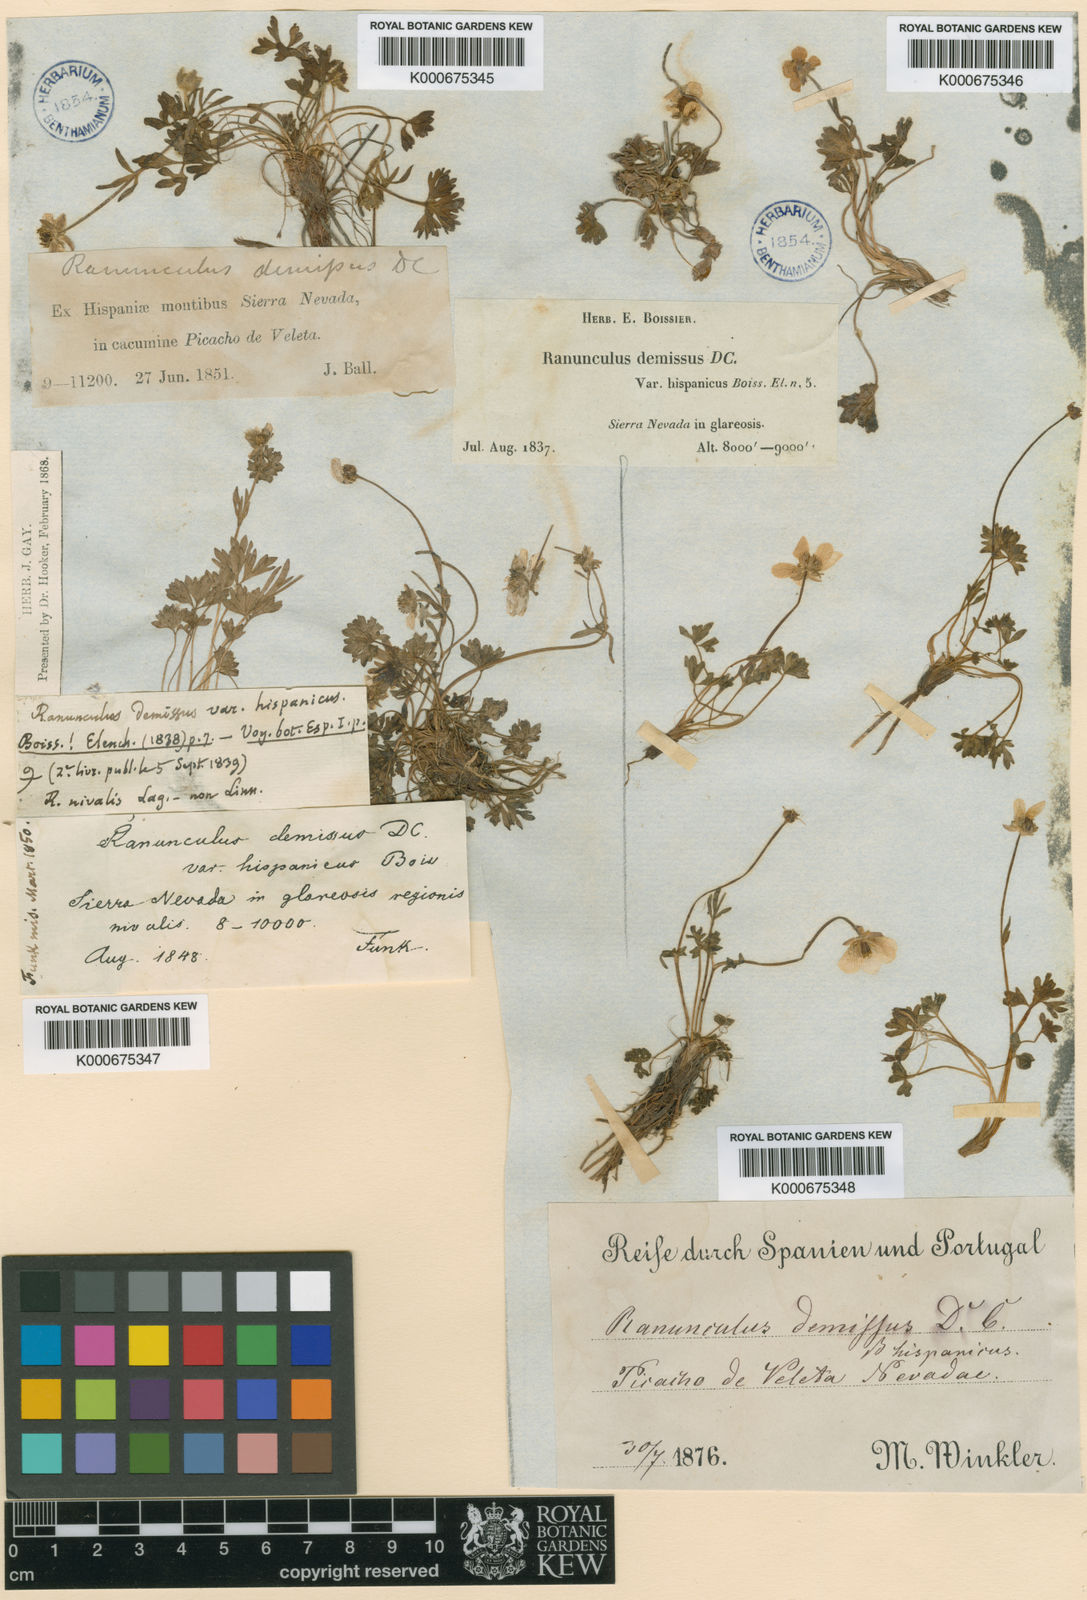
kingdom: Plantae
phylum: Tracheophyta
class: Magnoliopsida
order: Ranunculales
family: Ranunculaceae
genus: Ranunculus
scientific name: Ranunculus demissus
